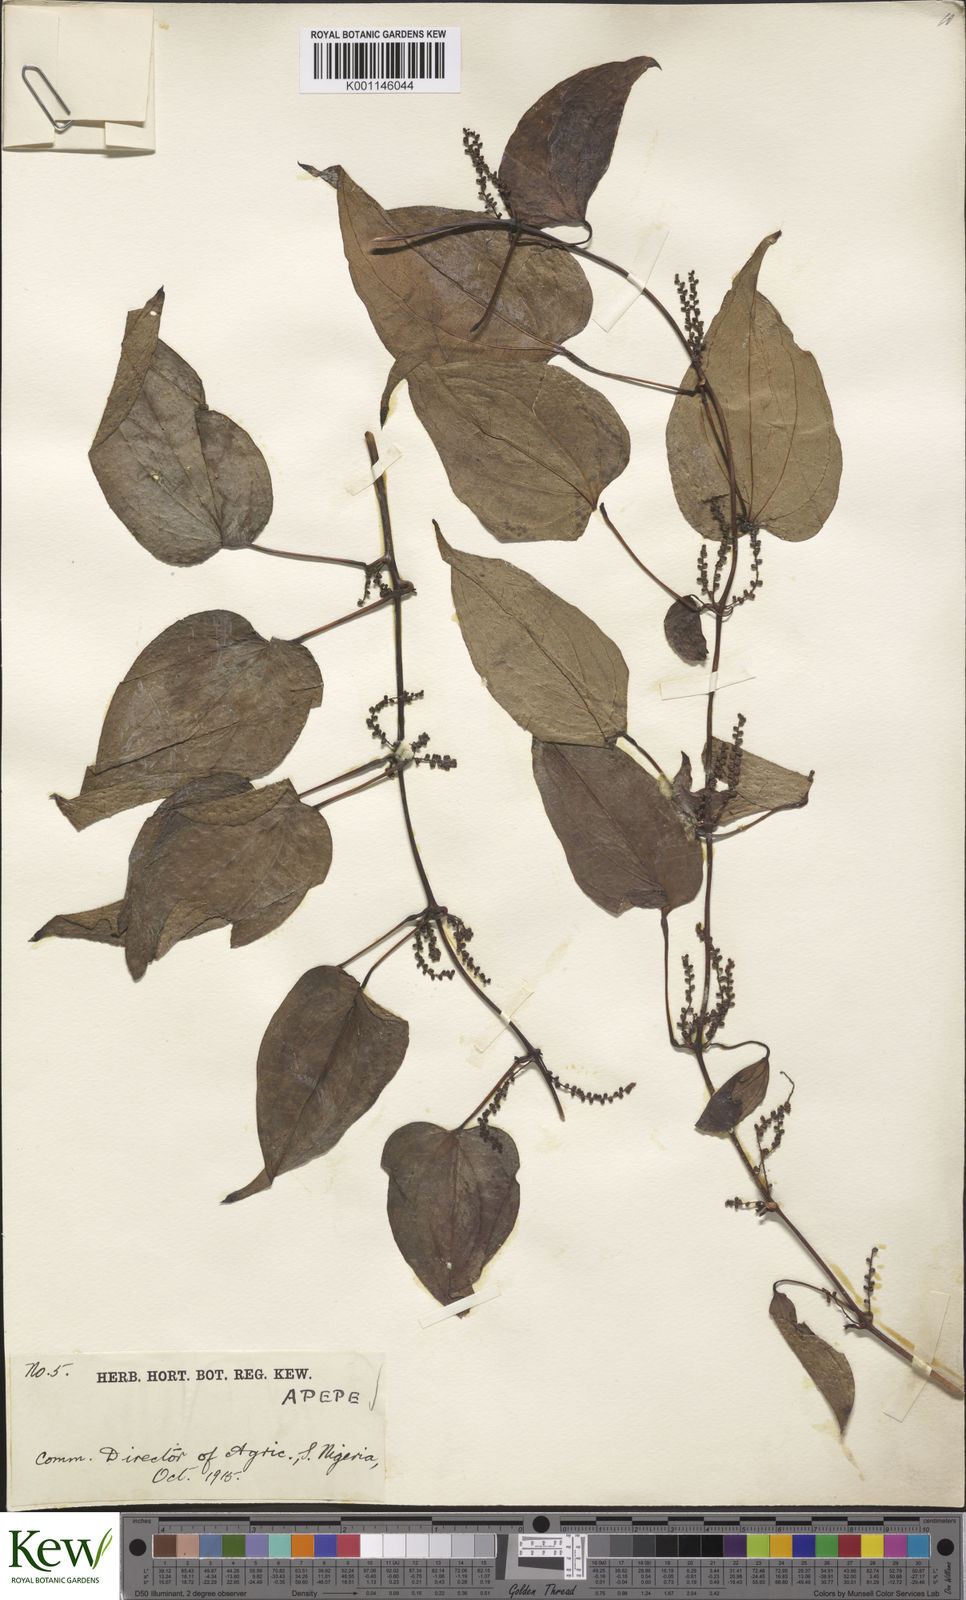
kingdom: Plantae
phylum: Tracheophyta
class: Liliopsida
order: Dioscoreales
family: Dioscoreaceae
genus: Dioscorea
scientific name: Dioscorea baya
